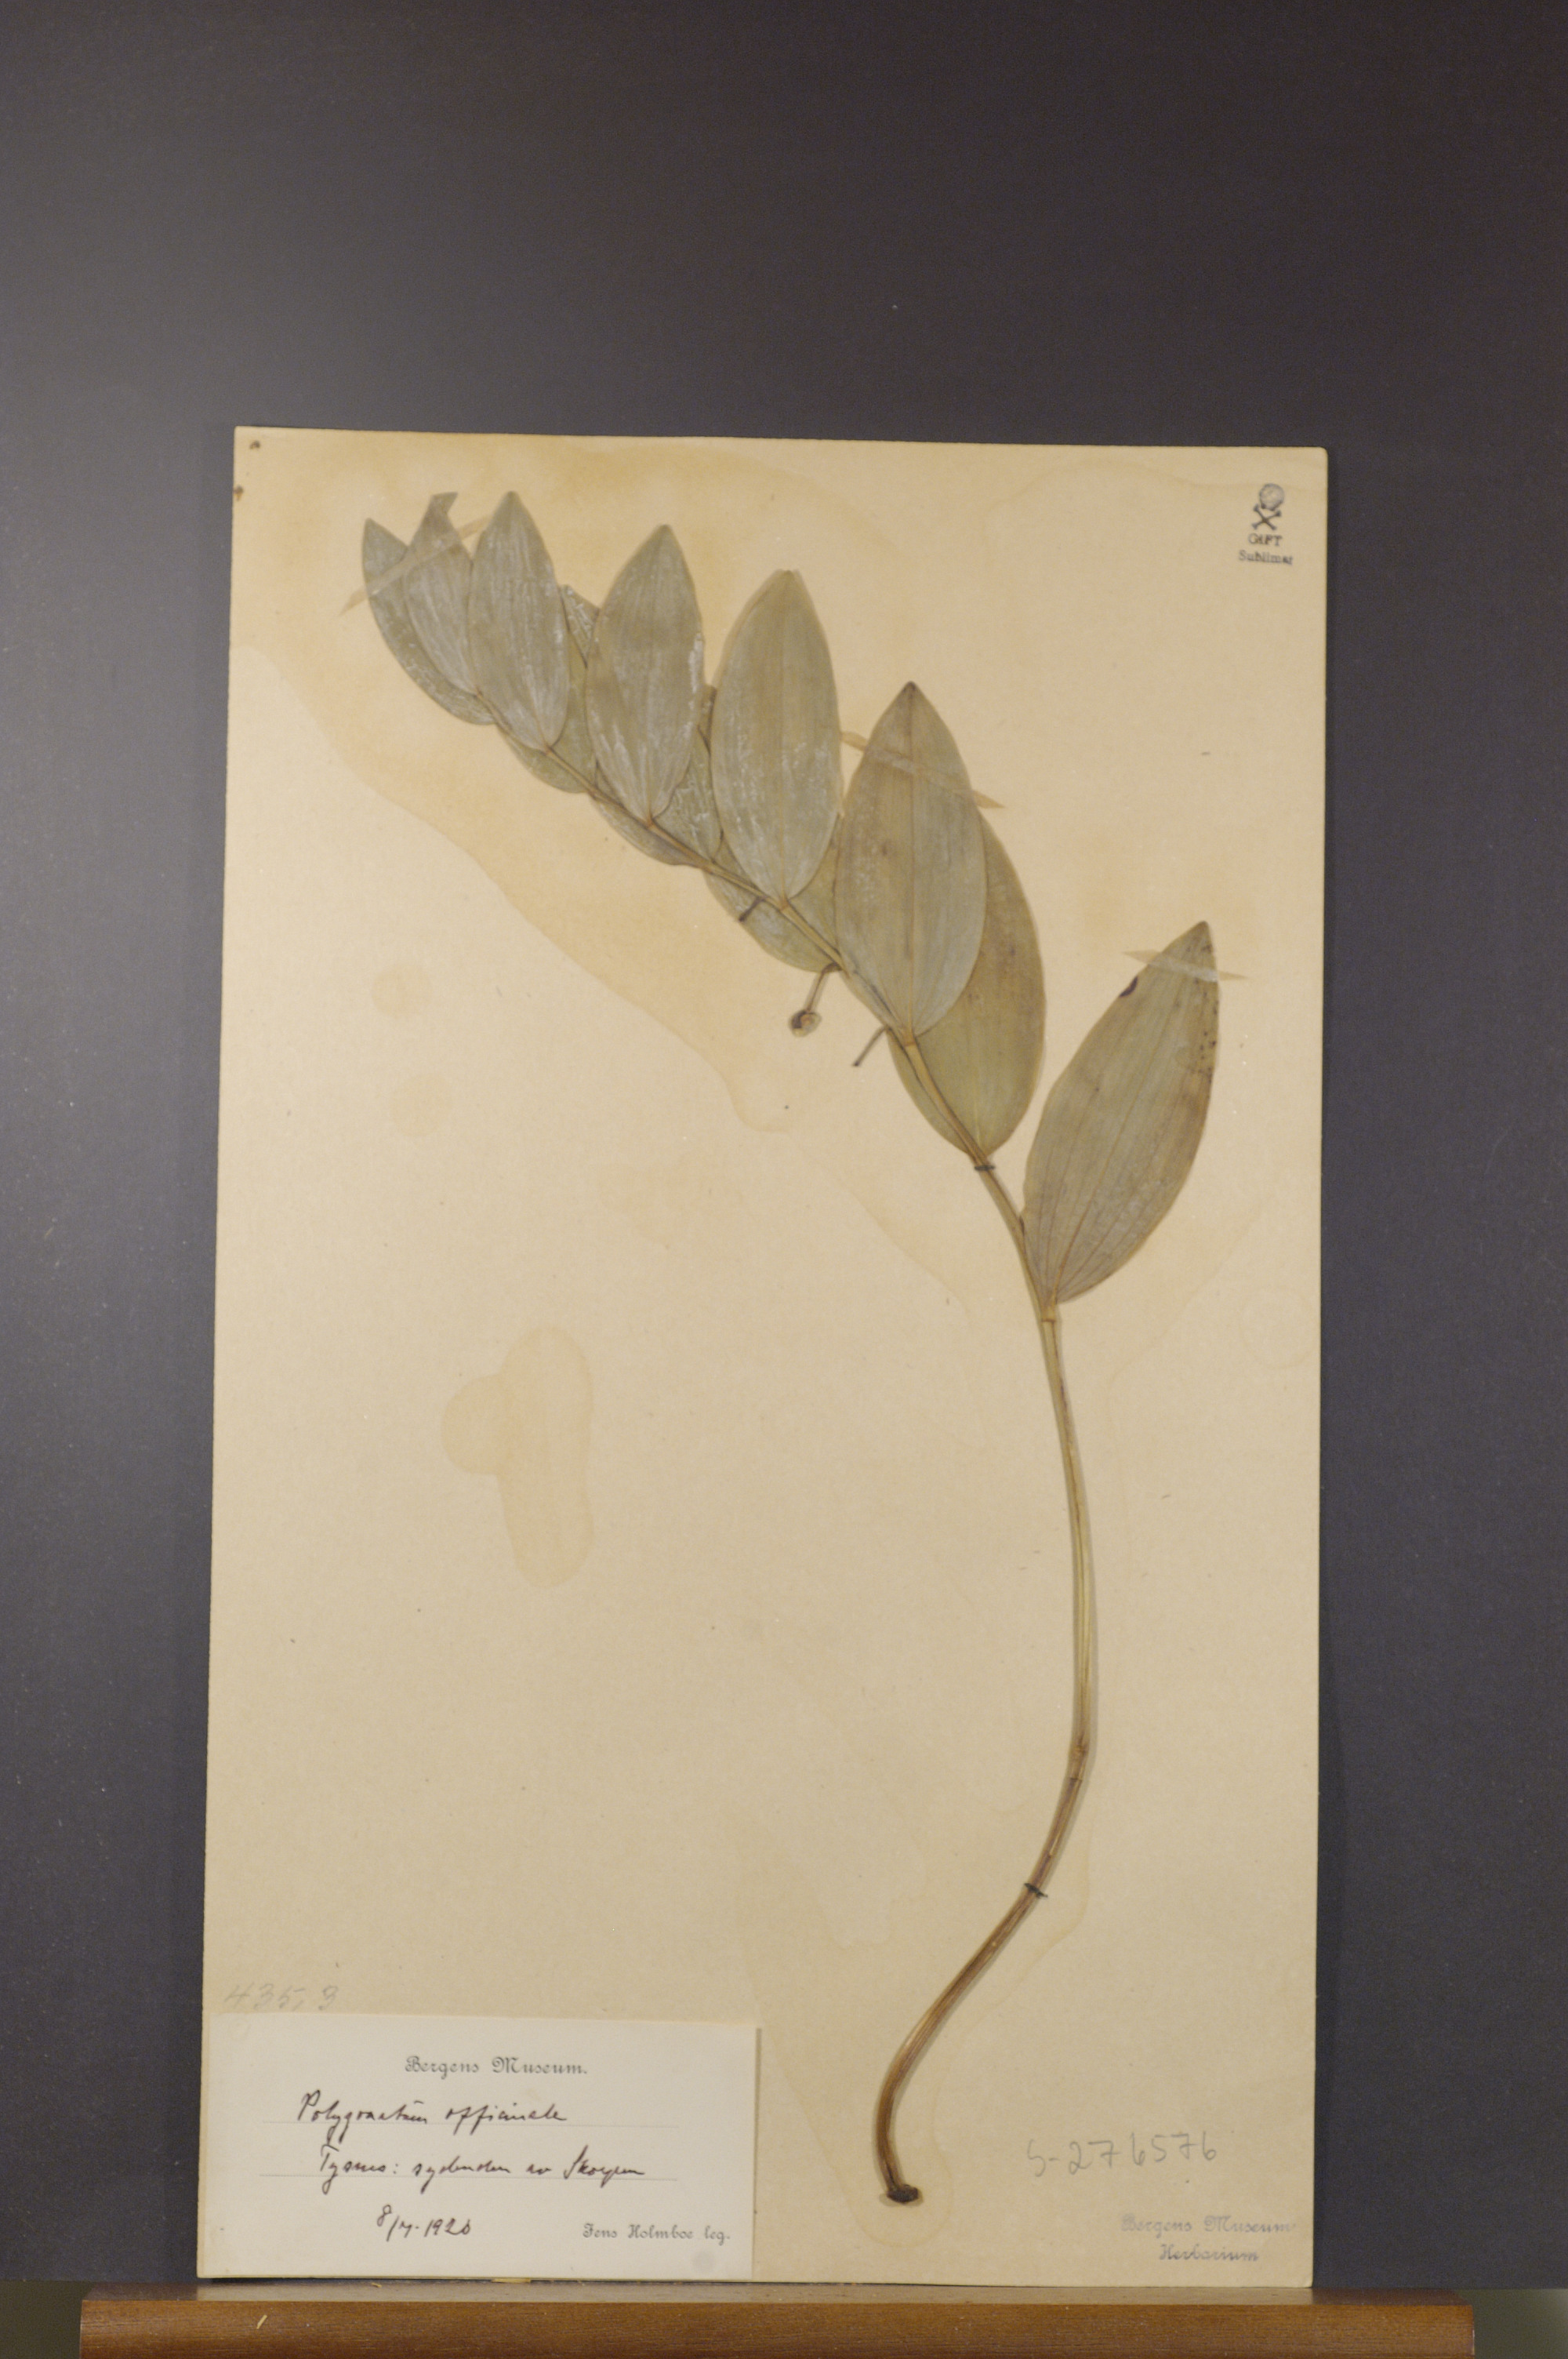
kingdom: Plantae
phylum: Tracheophyta
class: Liliopsida
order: Asparagales
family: Asparagaceae
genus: Polygonatum
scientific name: Polygonatum odoratum
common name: Angular solomon's-seal
